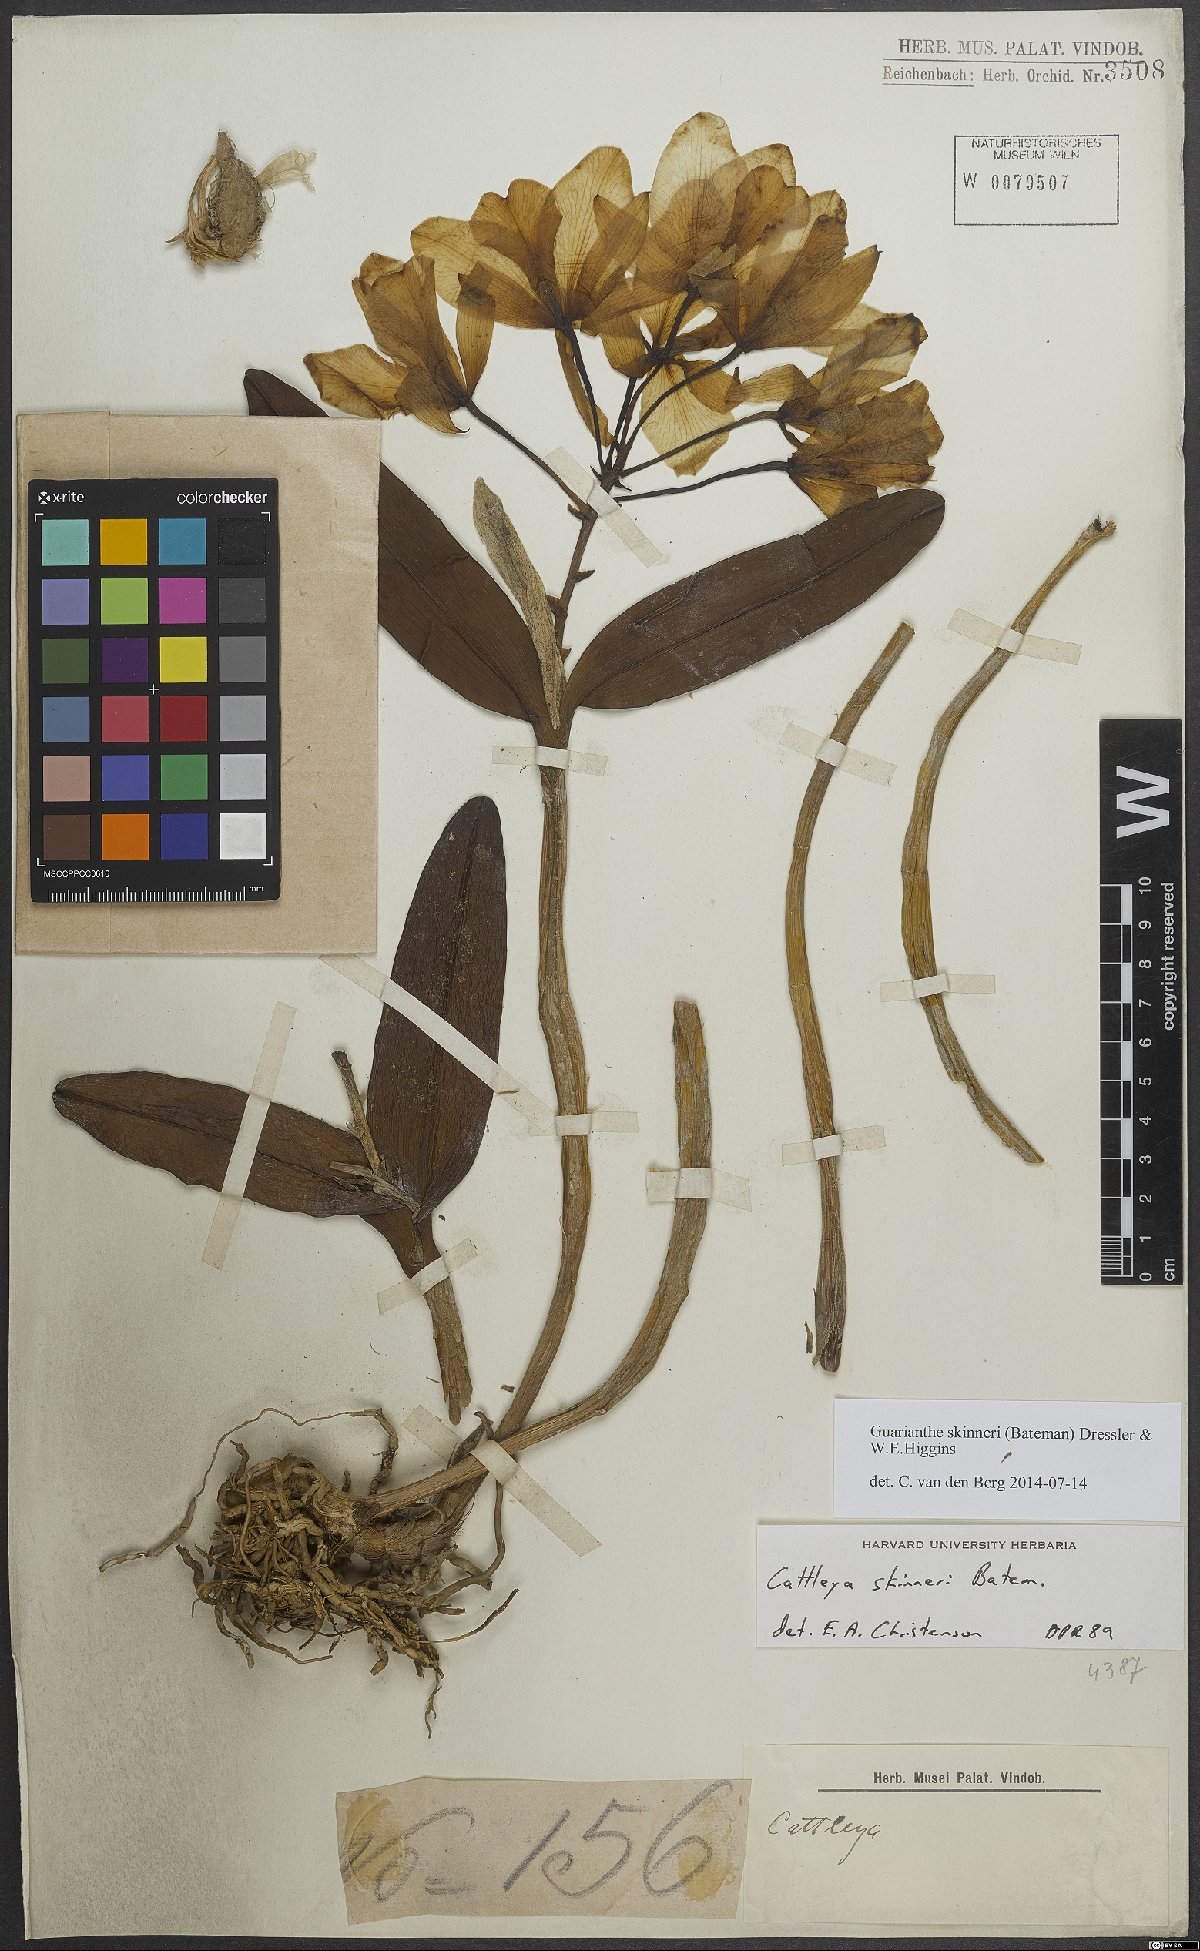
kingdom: Plantae
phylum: Tracheophyta
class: Liliopsida
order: Asparagales
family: Orchidaceae
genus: Guarianthe
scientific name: Guarianthe skinneri
